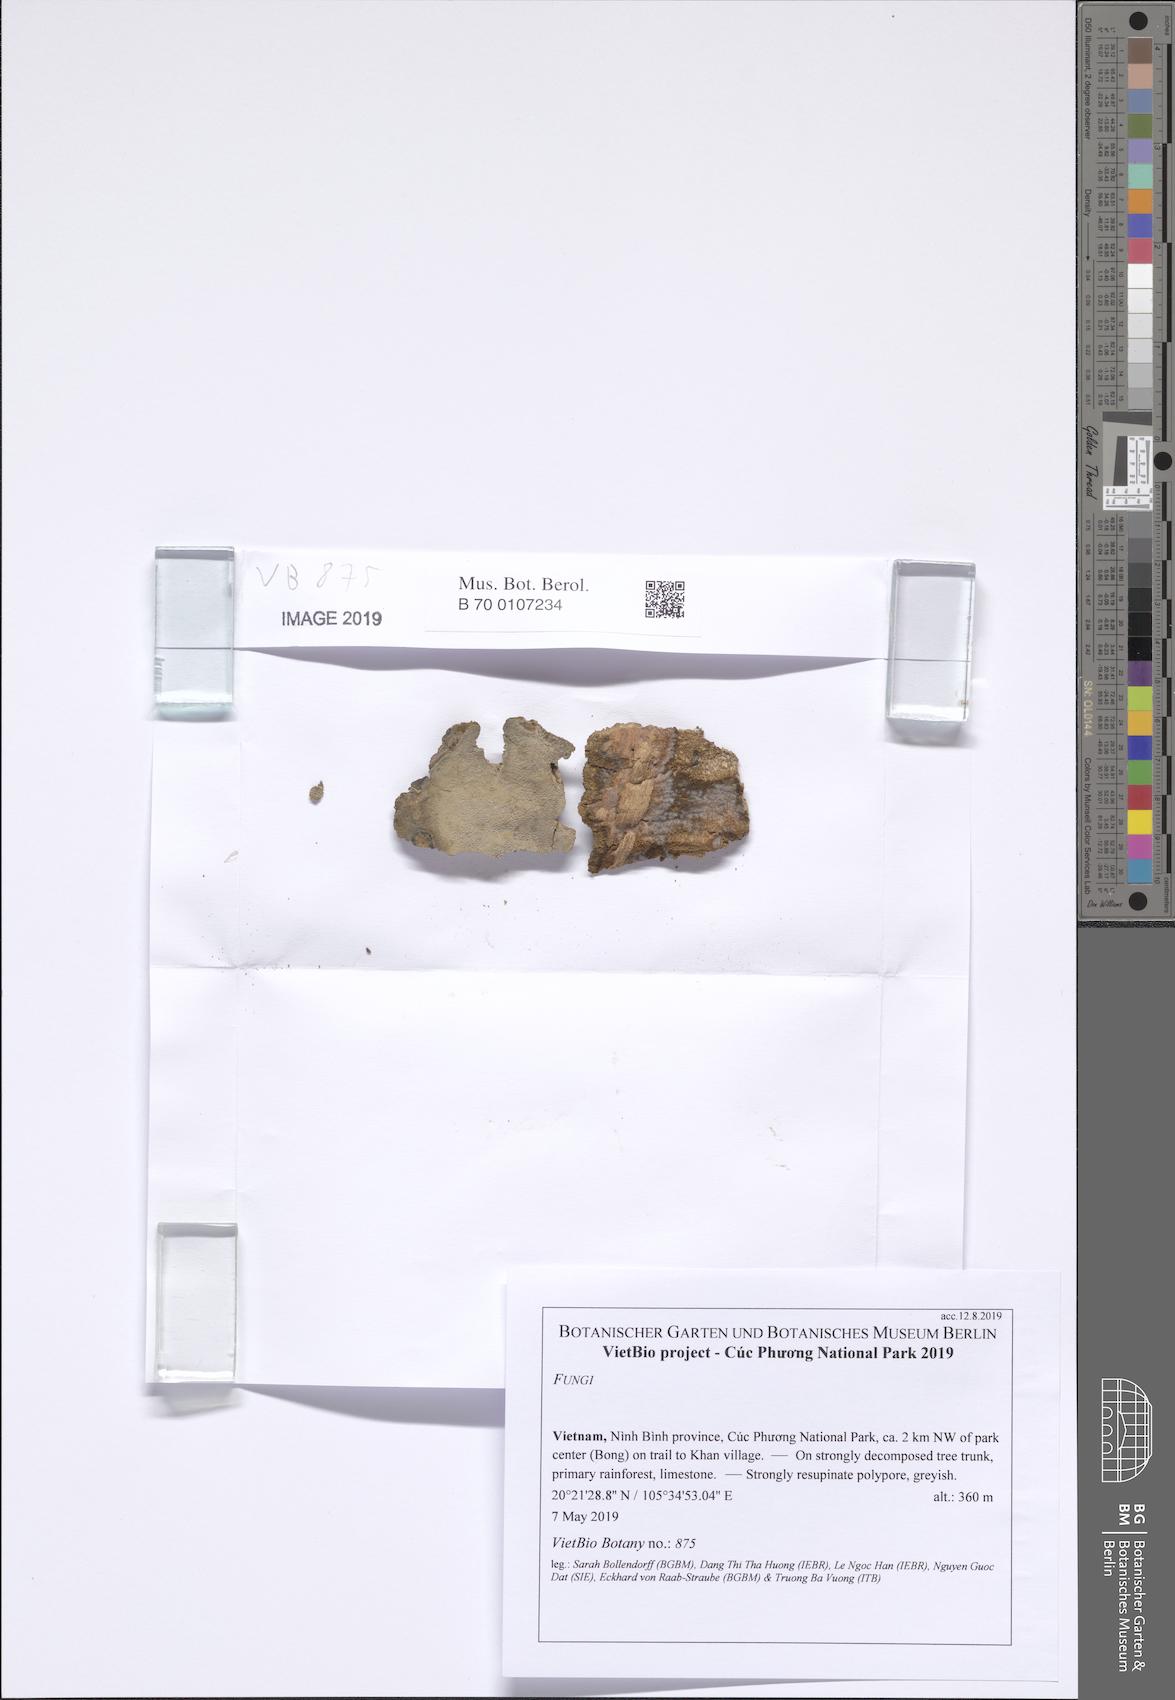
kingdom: Fungi
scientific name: Fungi
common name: Fungi
